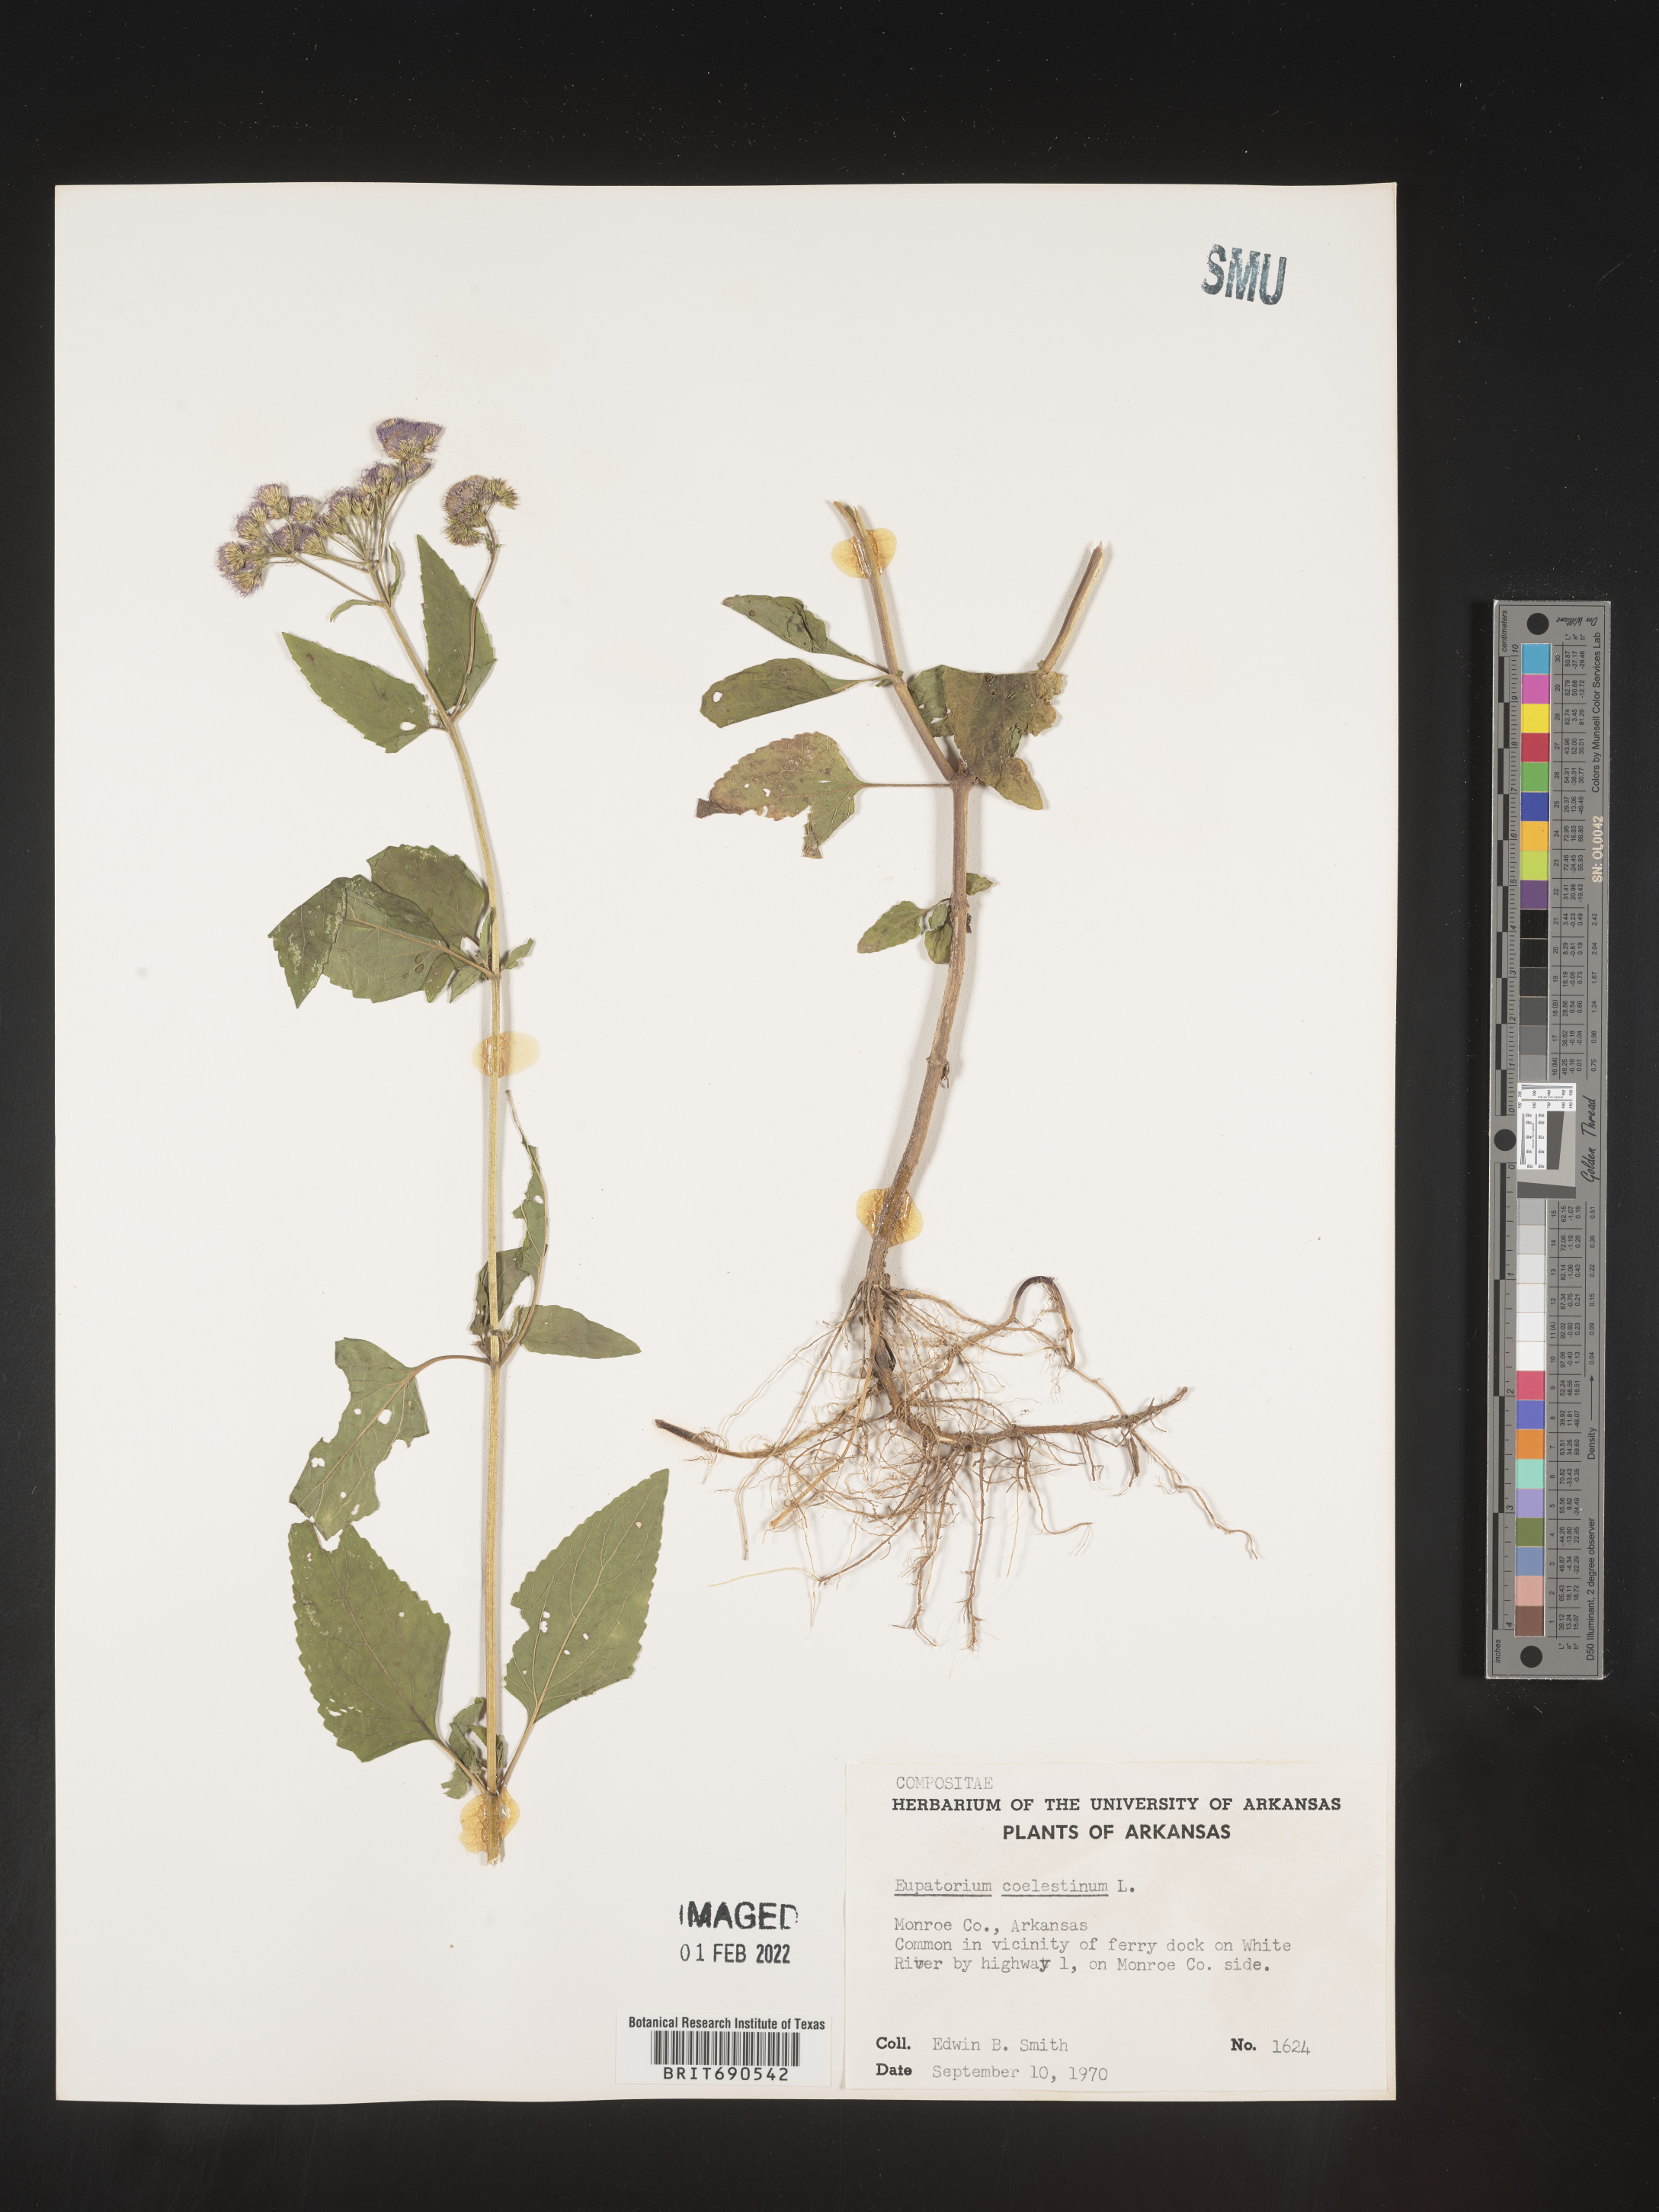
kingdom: Plantae
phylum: Tracheophyta
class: Magnoliopsida
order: Asterales
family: Asteraceae
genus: Conoclinium
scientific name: Conoclinium coelestinum
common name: Blue mistflower
